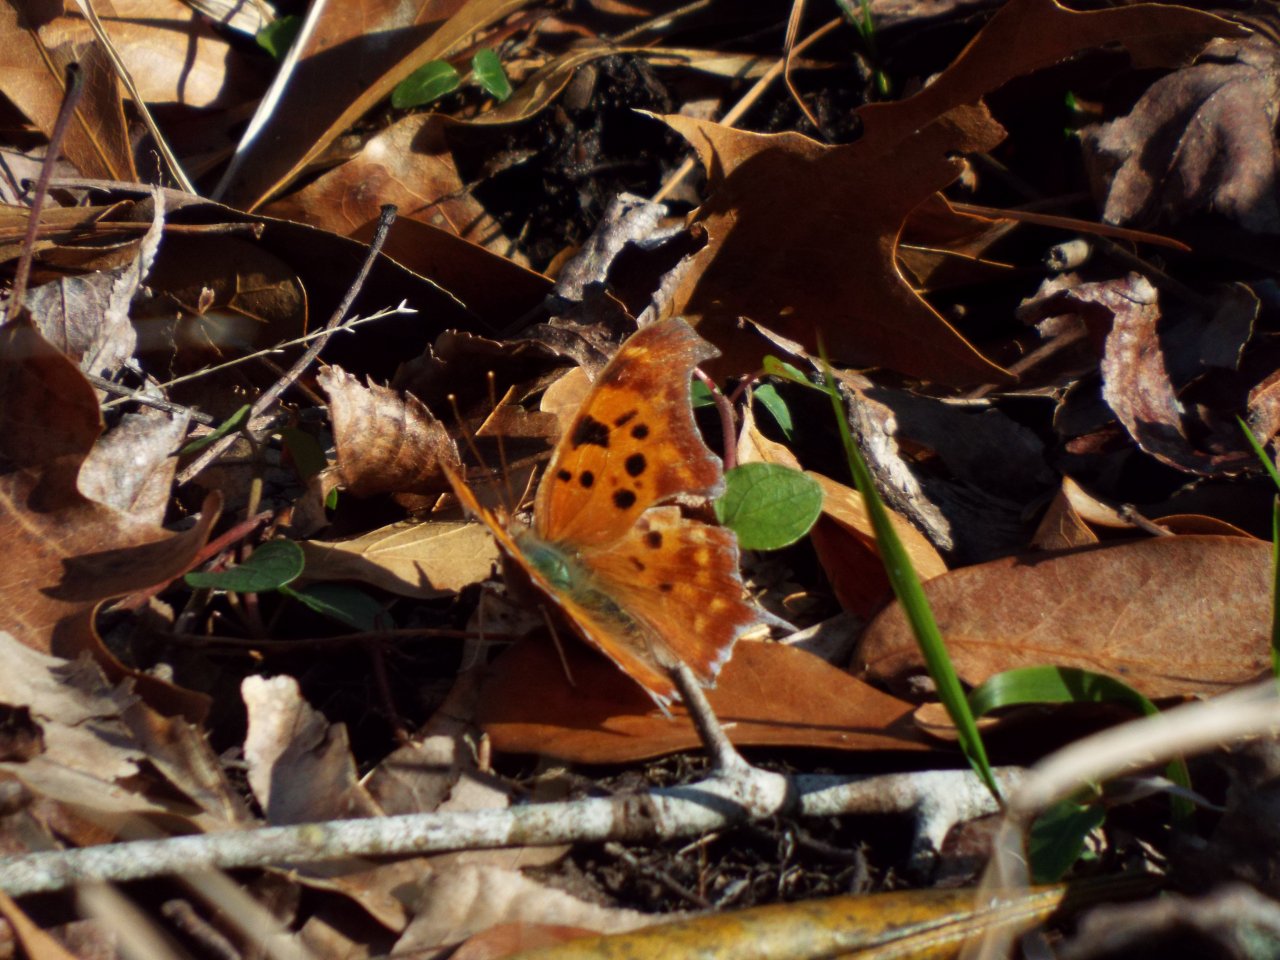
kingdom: Animalia
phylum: Arthropoda
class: Insecta
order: Lepidoptera
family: Nymphalidae
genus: Polygonia
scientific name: Polygonia interrogationis
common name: Question Mark
